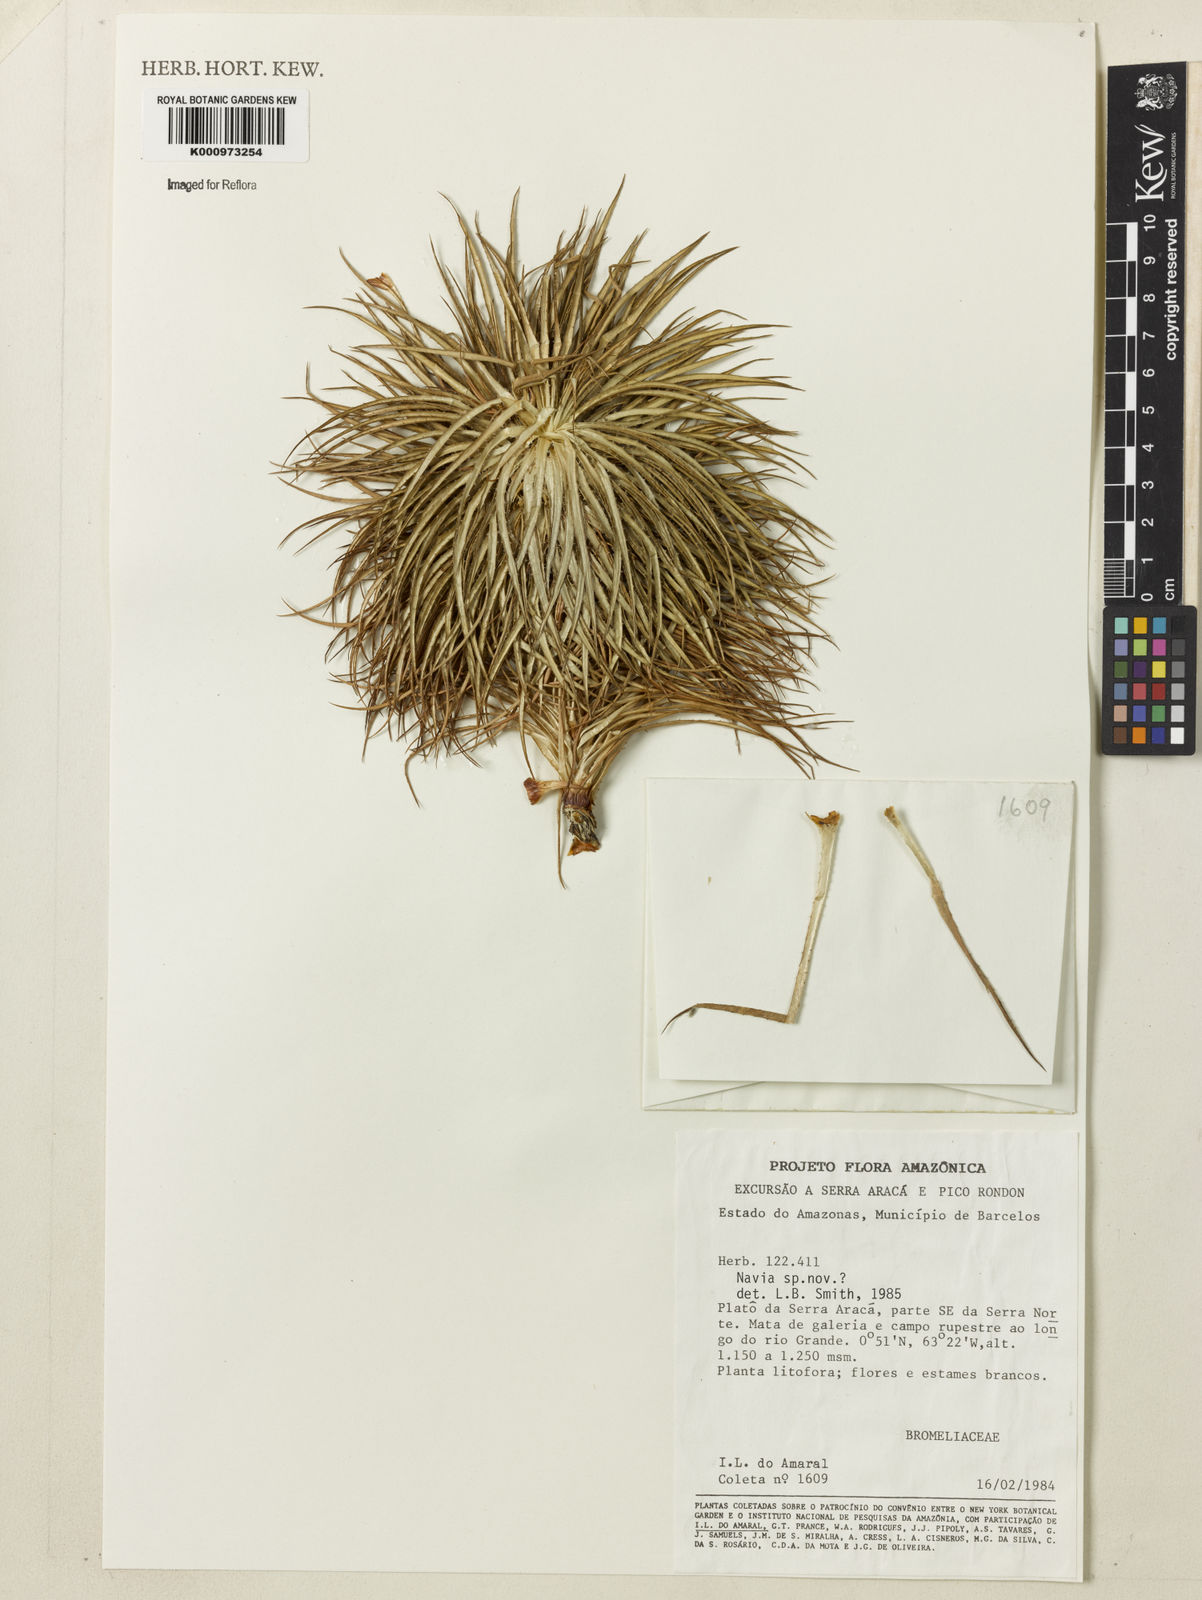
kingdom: Plantae
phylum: Tracheophyta
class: Liliopsida
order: Poales
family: Bromeliaceae
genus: Navia
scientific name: Navia tenuifolia
